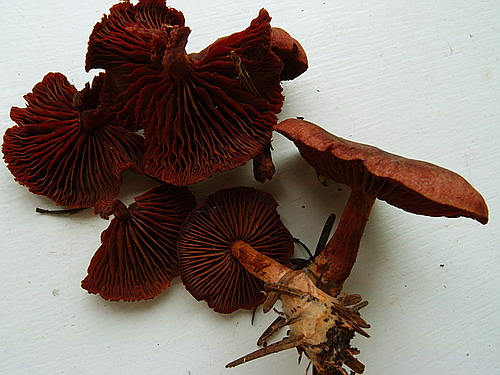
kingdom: Fungi
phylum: Basidiomycota
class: Agaricomycetes
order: Agaricales
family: Cortinariaceae
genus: Cortinarius
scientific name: Cortinarius sanguineus
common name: blodrød slørhat
